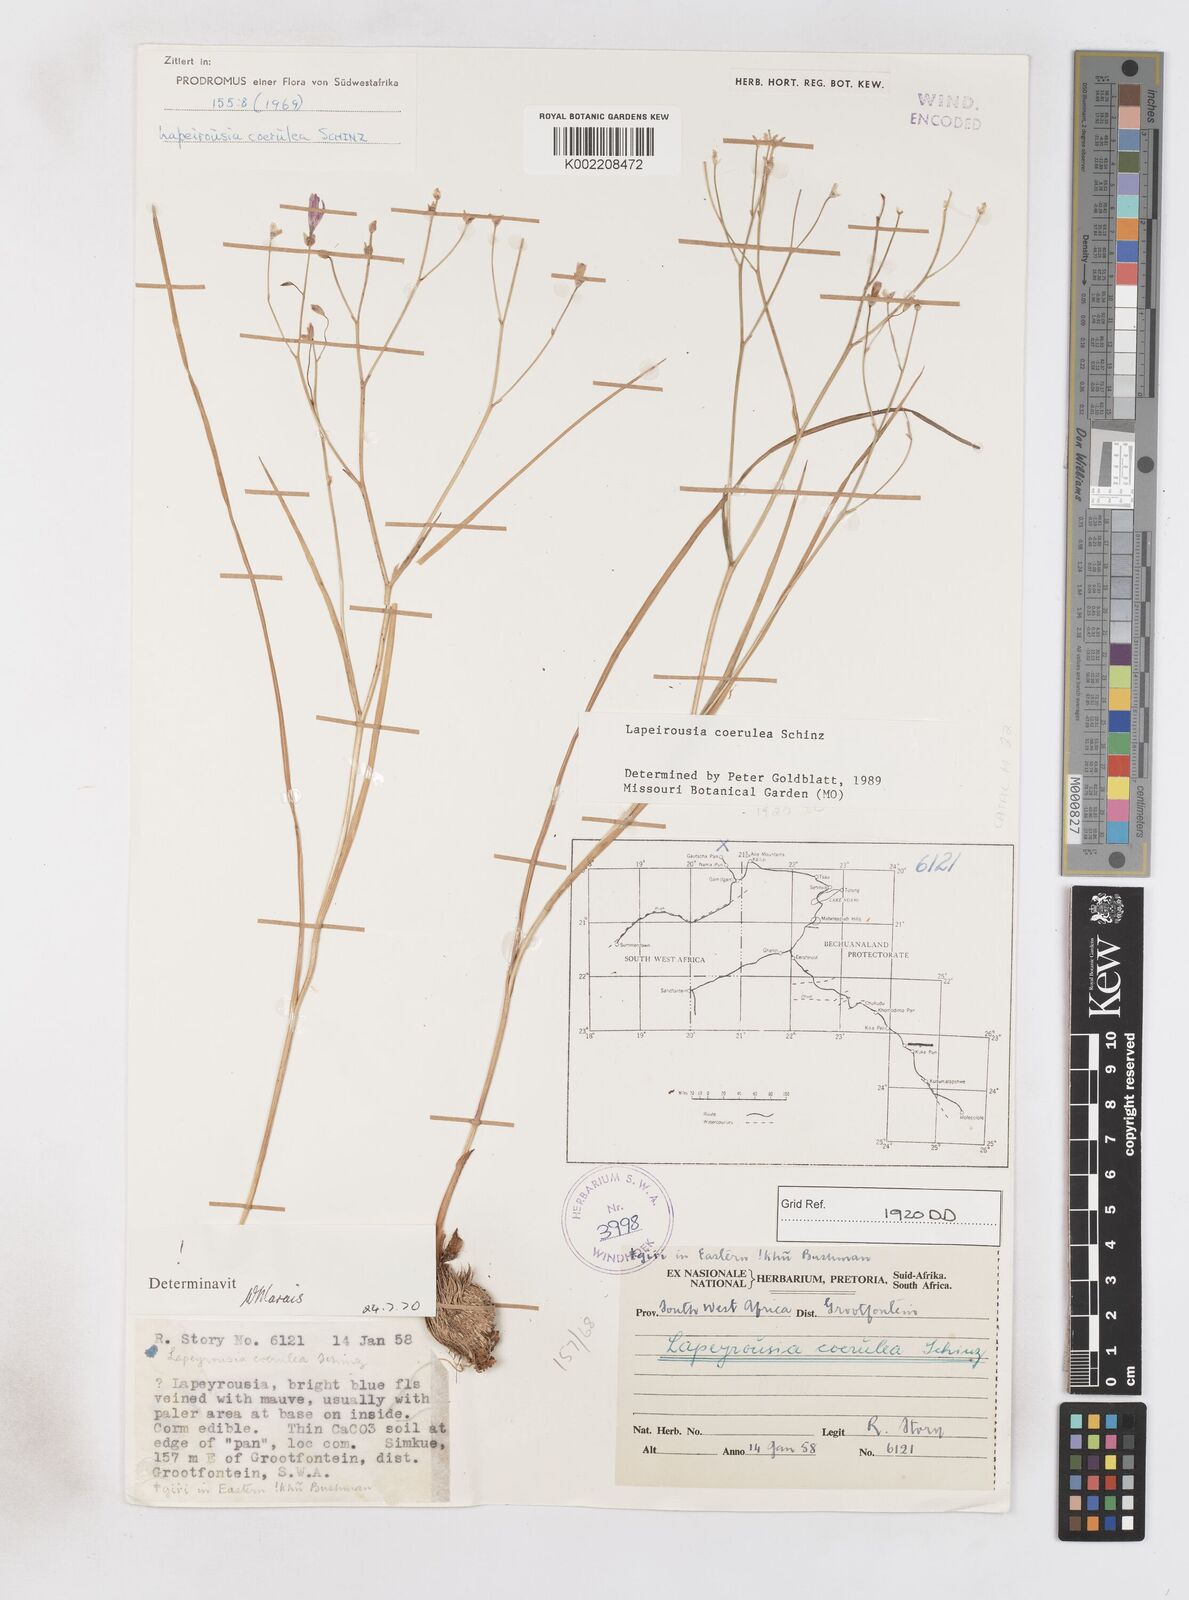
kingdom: Plantae
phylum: Tracheophyta
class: Liliopsida
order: Asparagales
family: Iridaceae
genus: Afrosolen
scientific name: Afrosolen coeruleus
